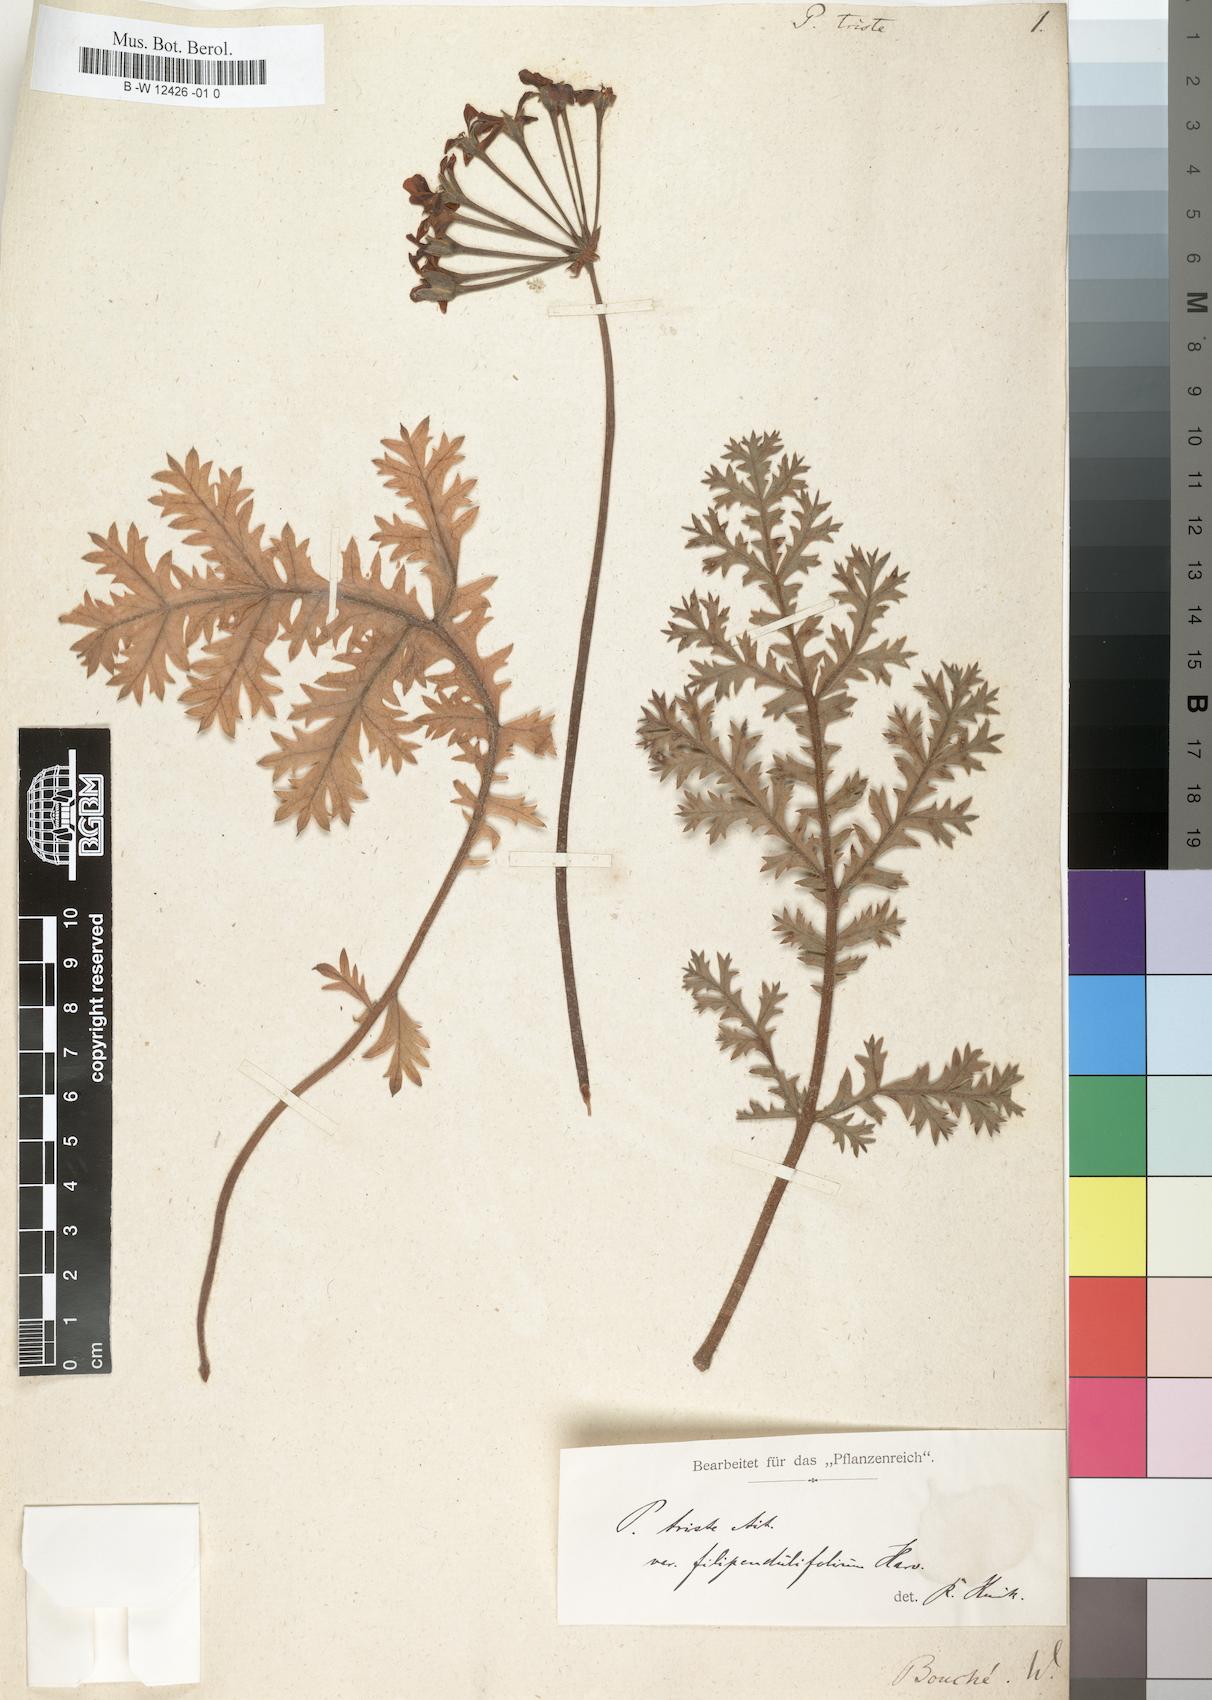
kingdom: Plantae
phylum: Tracheophyta
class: Magnoliopsida
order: Geraniales
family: Geraniaceae
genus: Pelargonium
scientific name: Pelargonium triste
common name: Night-scent pelargonium
